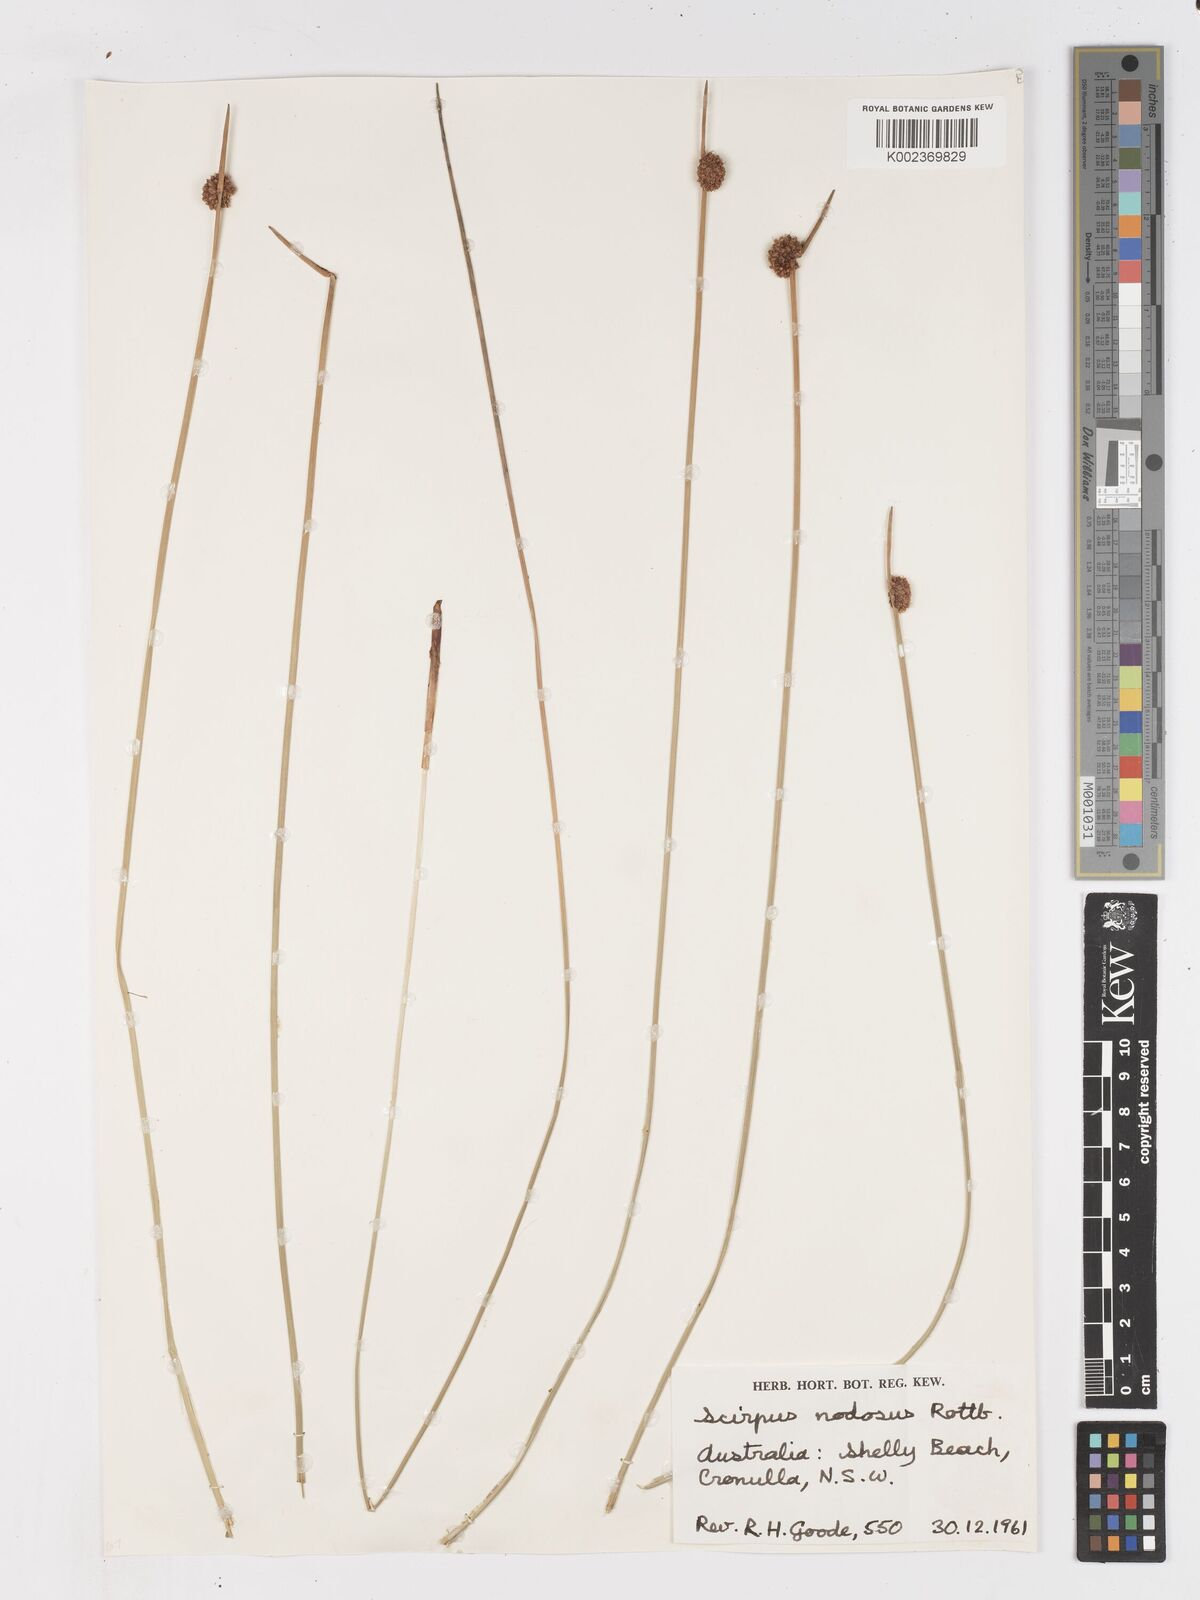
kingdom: Plantae
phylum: Tracheophyta
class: Liliopsida
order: Poales
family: Cyperaceae
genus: Ficinia
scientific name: Ficinia nodosa
